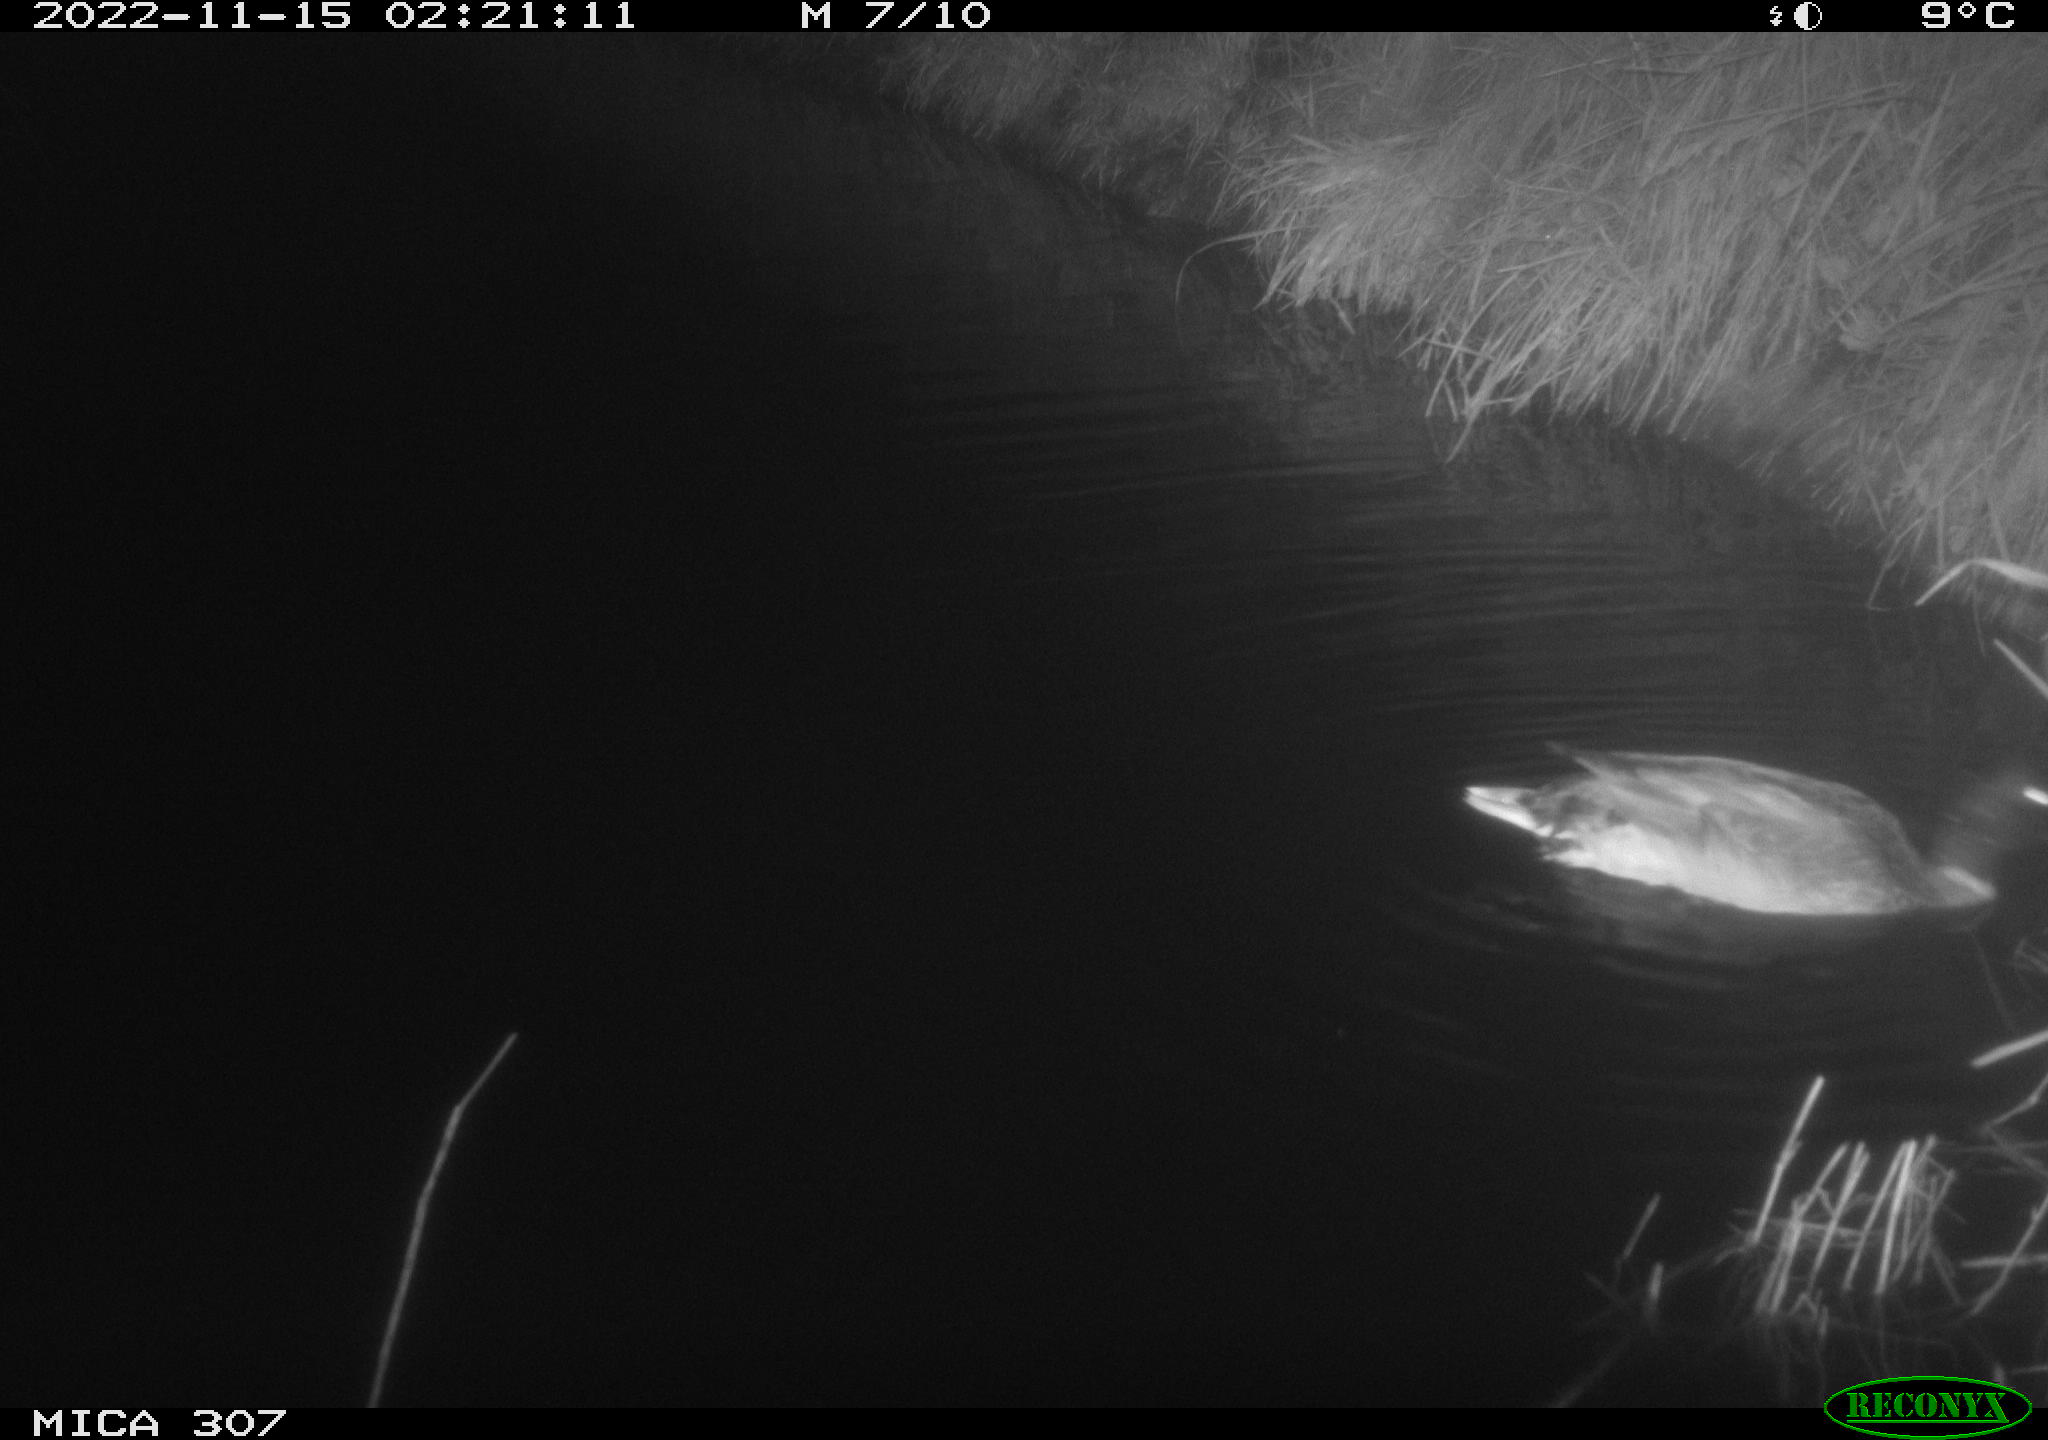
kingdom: Animalia
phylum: Chordata
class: Aves
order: Anseriformes
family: Anatidae
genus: Anas
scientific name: Anas
